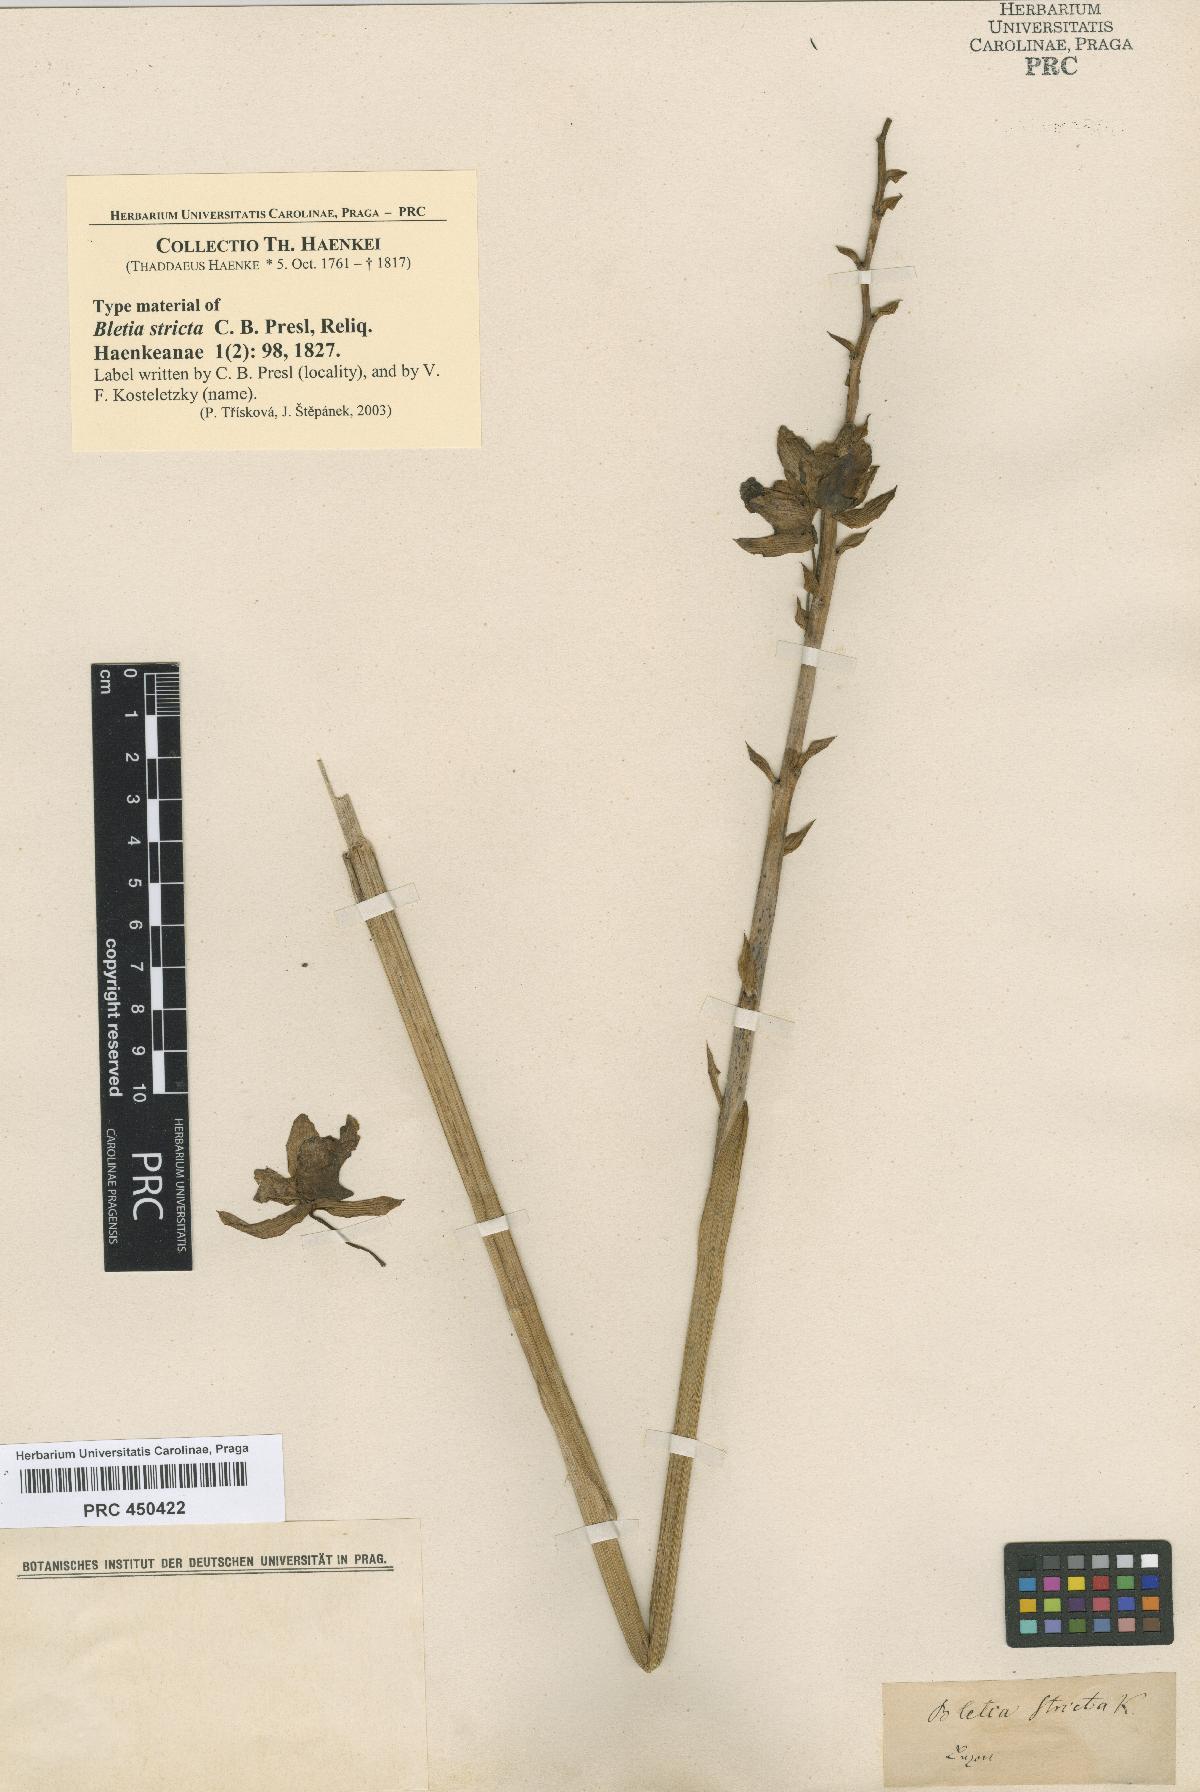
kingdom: Plantae
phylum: Tracheophyta
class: Liliopsida
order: Asparagales
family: Orchidaceae
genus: Eulophia
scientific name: Eulophia exaltata
